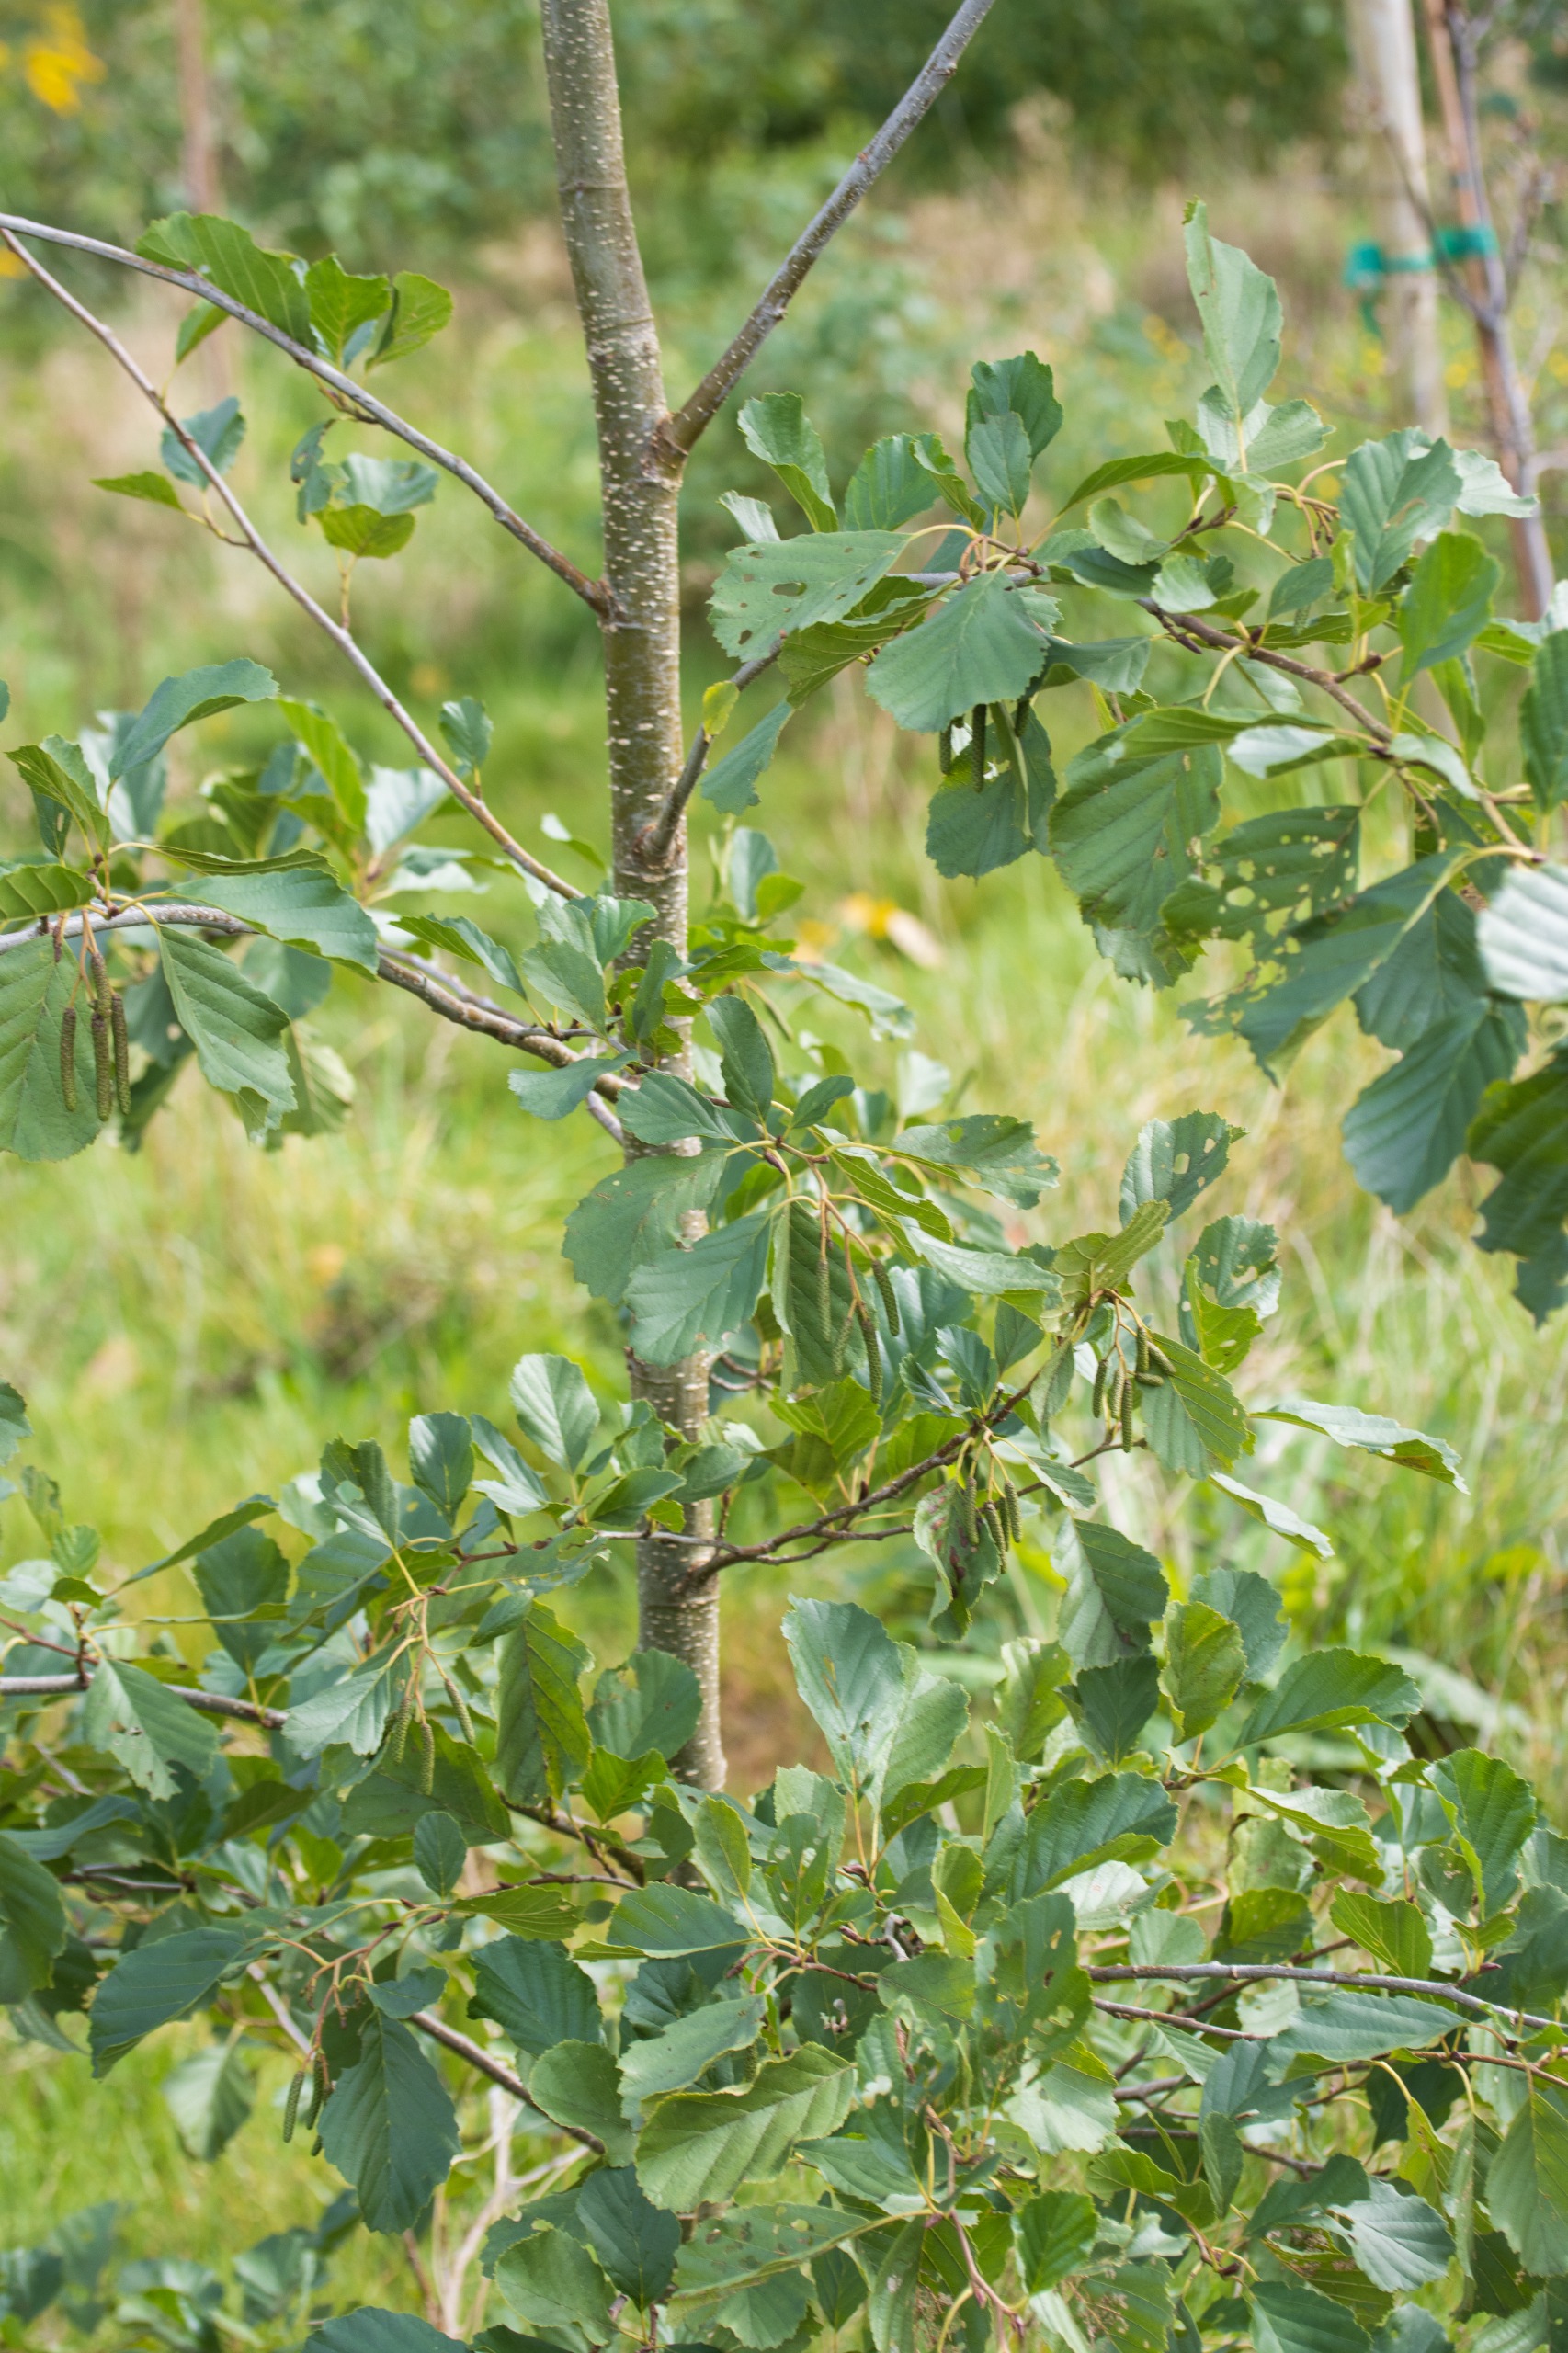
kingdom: Plantae
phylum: Tracheophyta
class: Magnoliopsida
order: Fagales
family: Betulaceae
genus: Alnus
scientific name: Alnus glutinosa
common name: Rød-el
